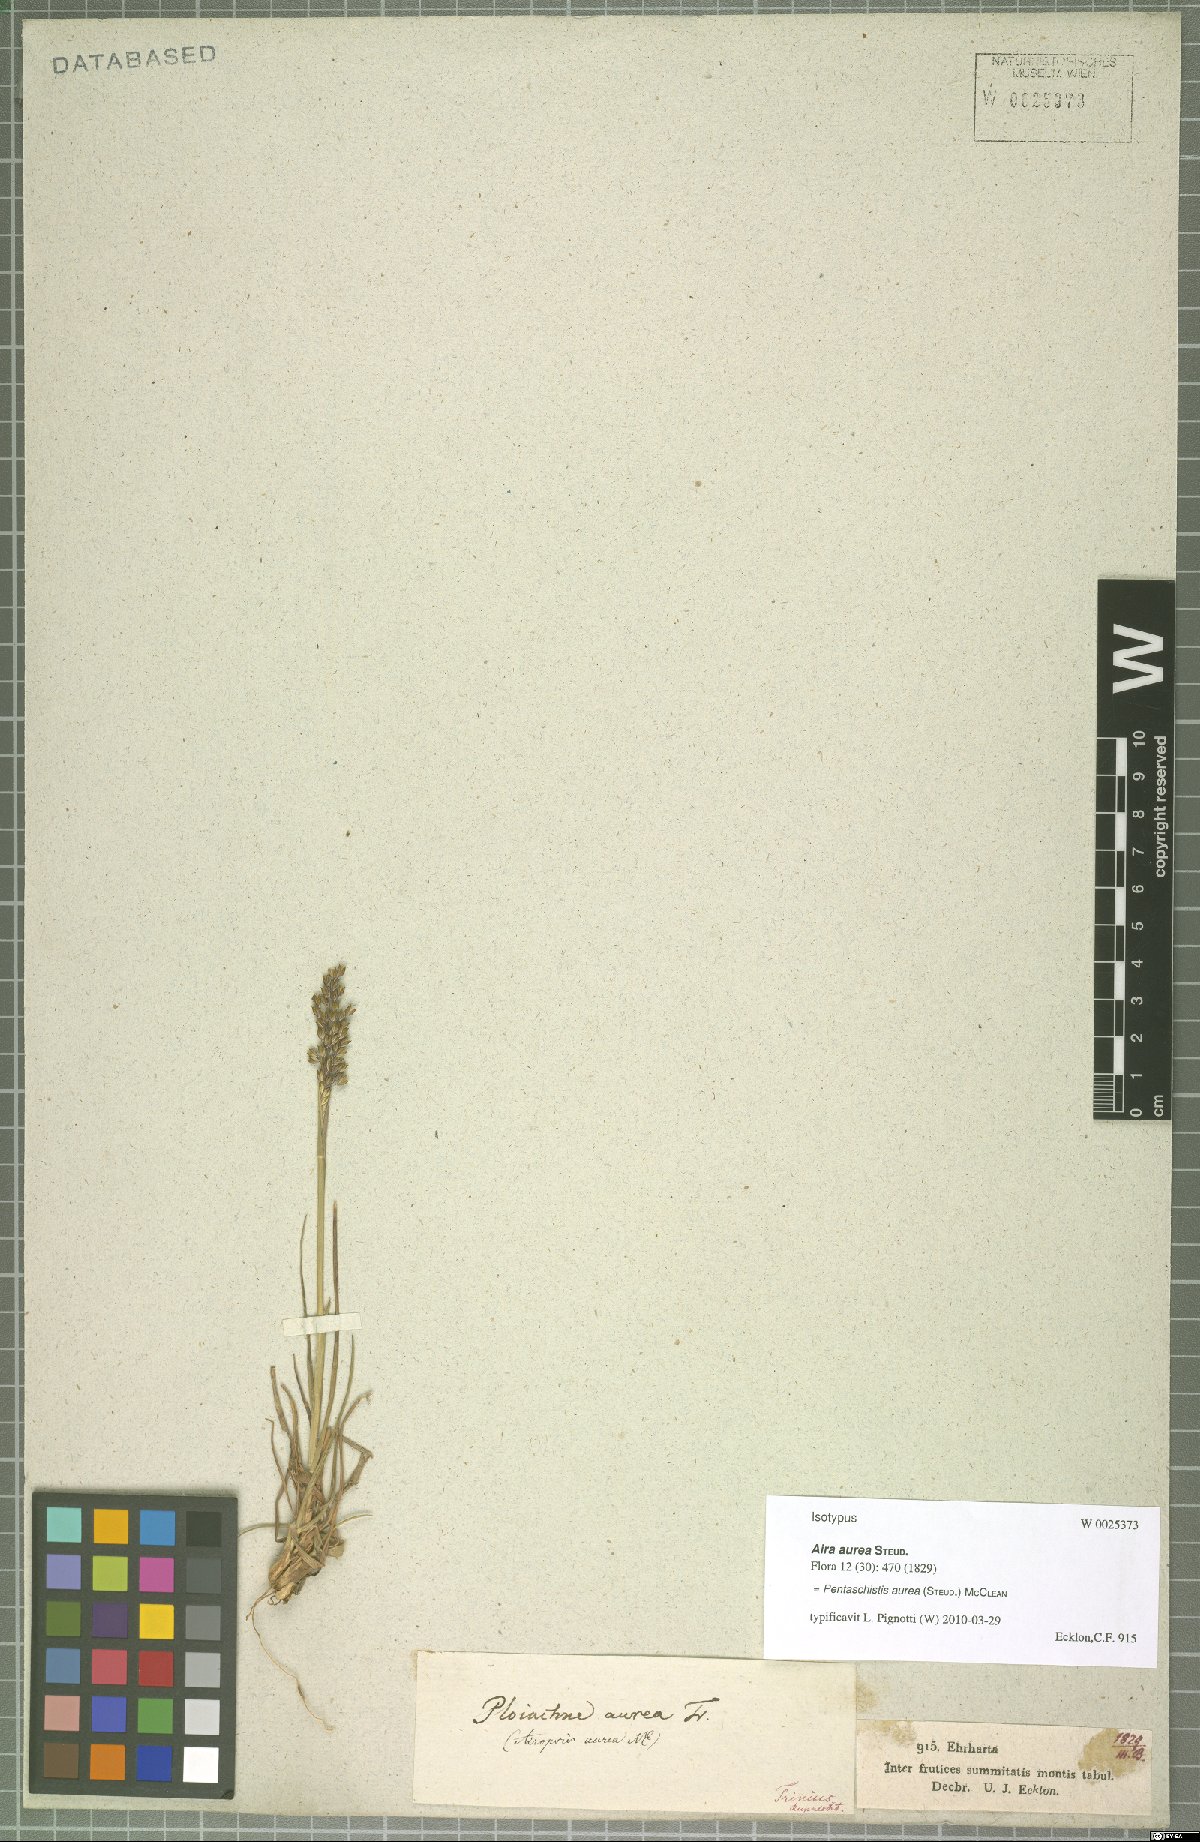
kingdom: Plantae
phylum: Tracheophyta
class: Liliopsida
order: Poales
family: Poaceae
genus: Pentameris
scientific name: Pentameris aurea
